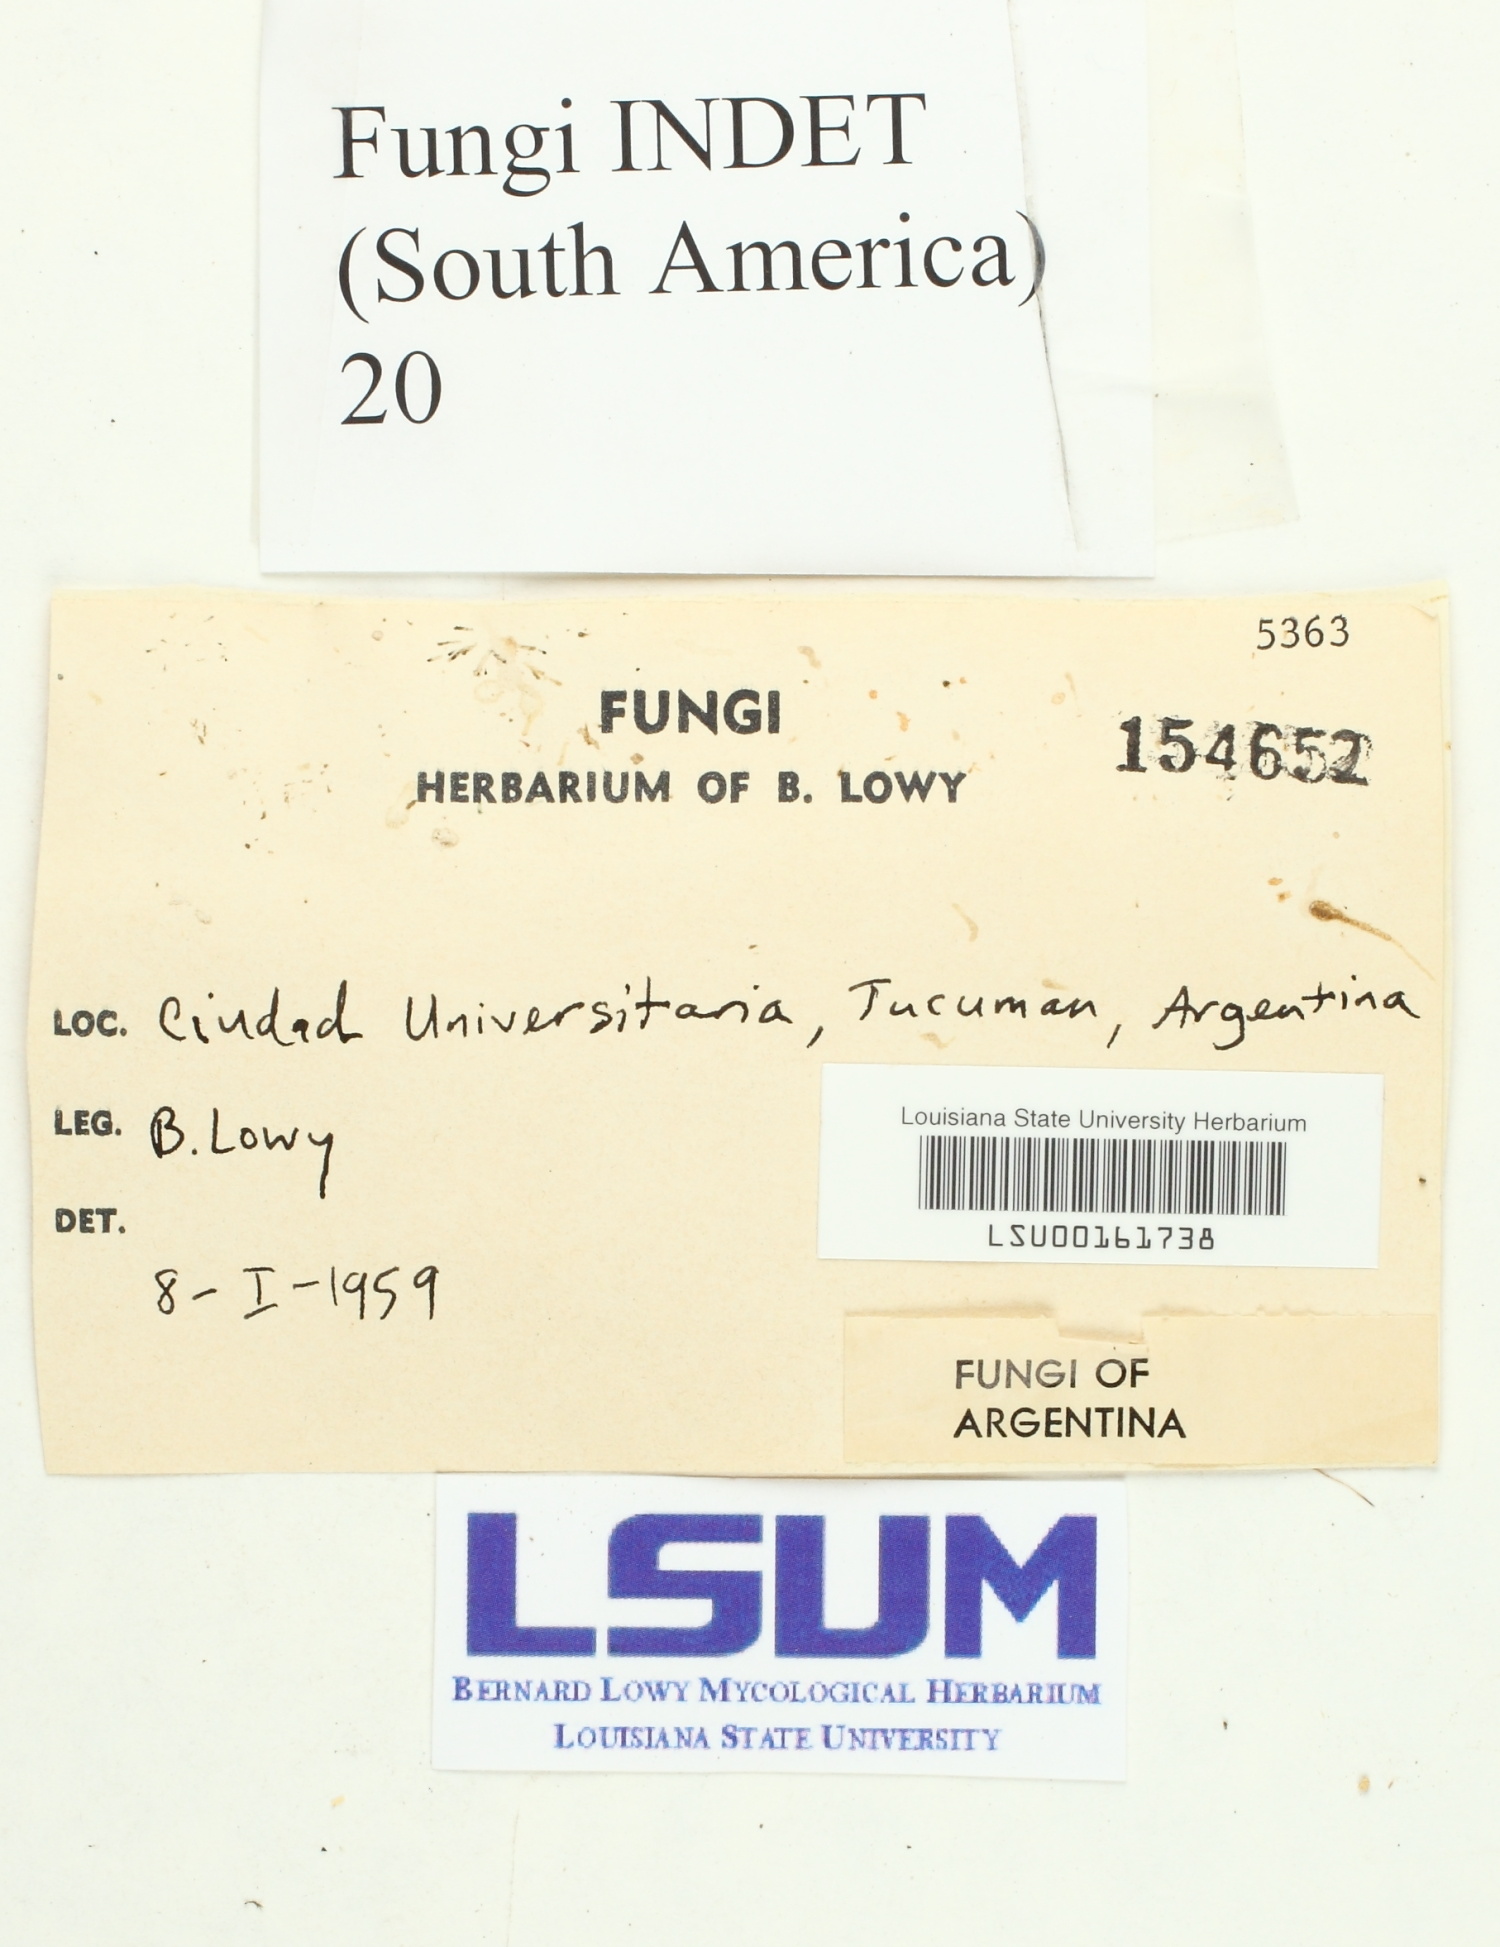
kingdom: Fungi
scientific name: Fungi
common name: Fungi
